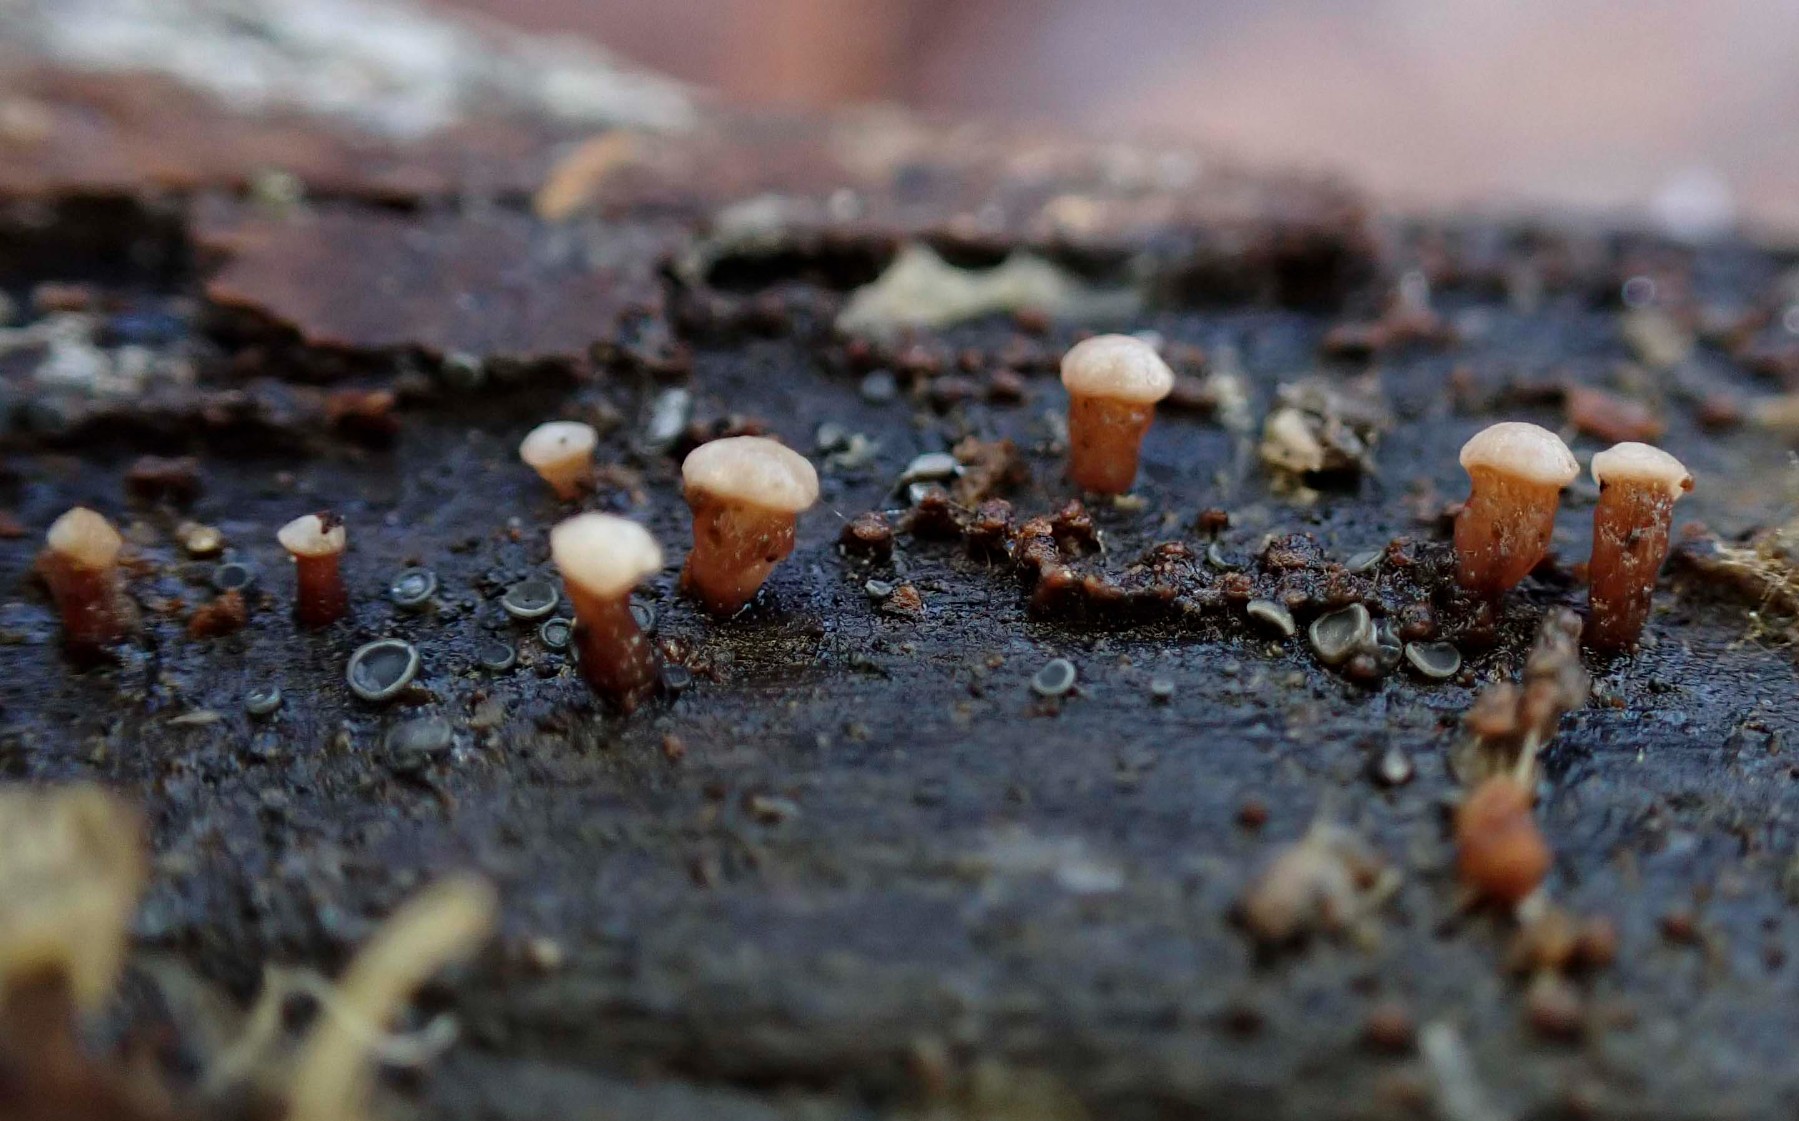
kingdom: Fungi
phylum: Ascomycota
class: Leotiomycetes
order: Helotiales
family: Gelatinodiscaceae
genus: Ascocoryne
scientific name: Ascocoryne albida
